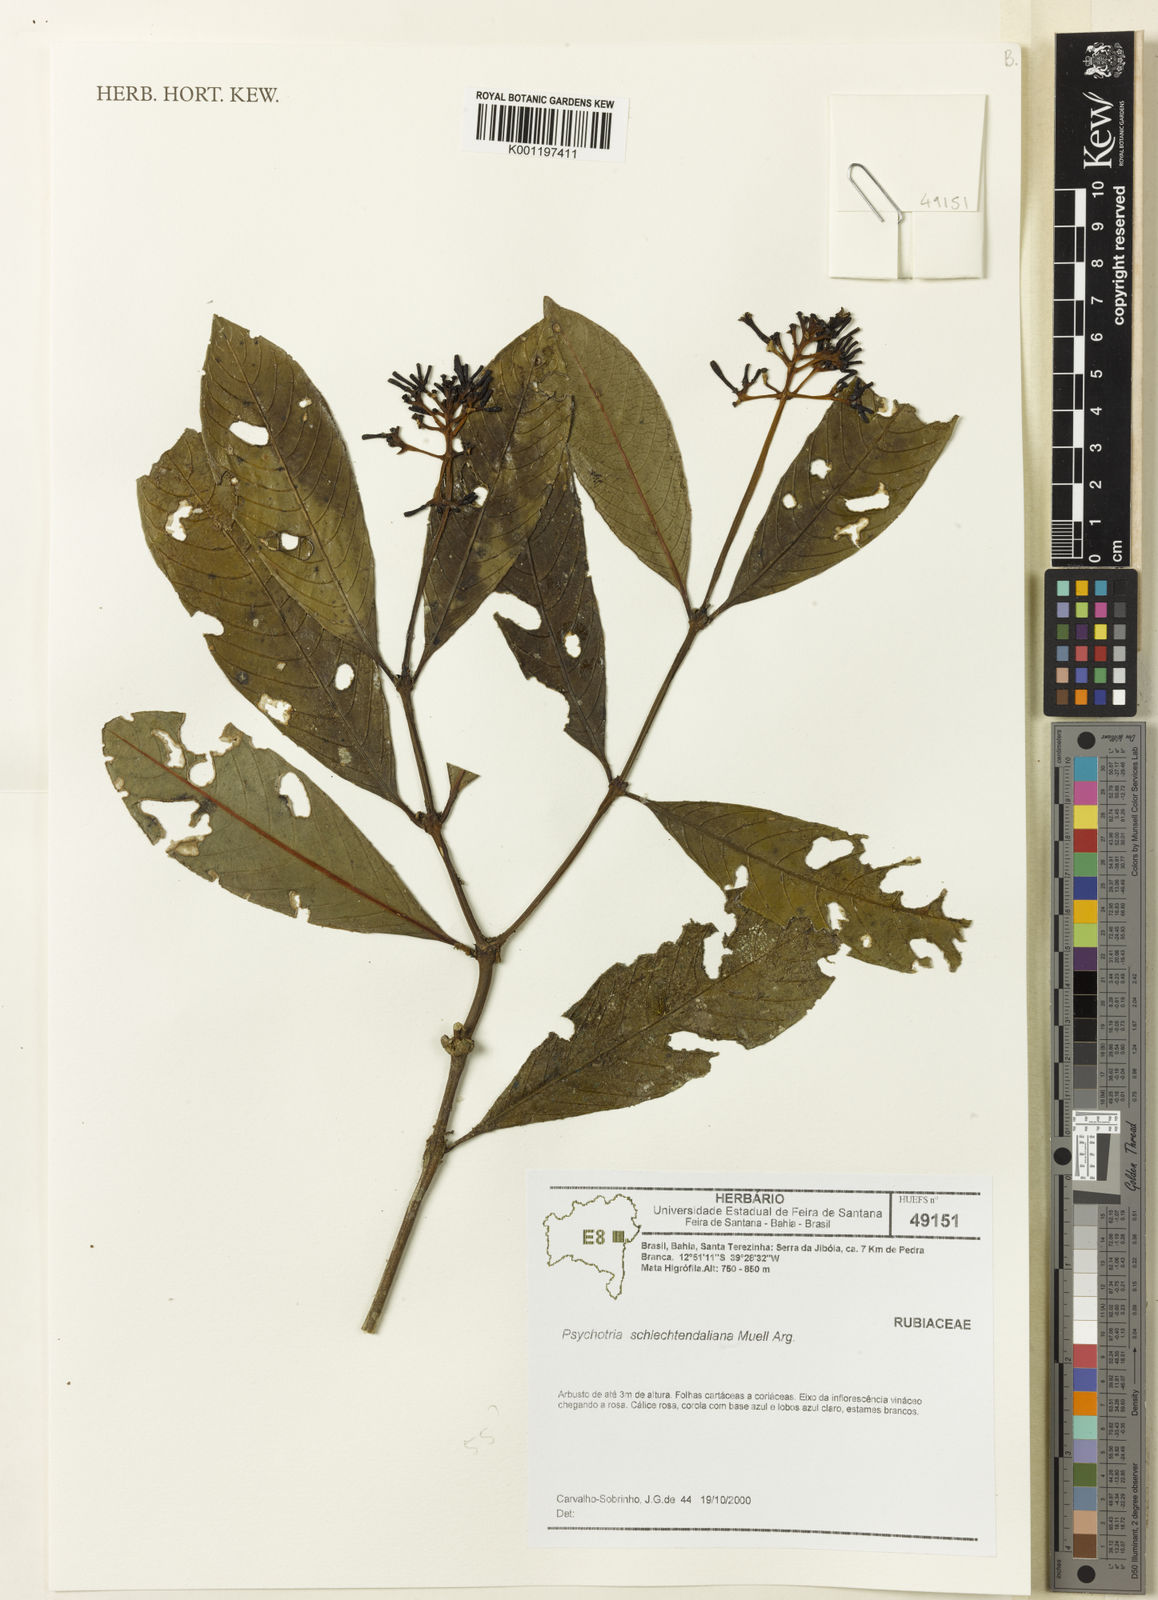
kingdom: Plantae
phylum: Tracheophyta
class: Magnoliopsida
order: Gentianales
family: Rubiaceae
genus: Psychotria
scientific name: Psychotria
